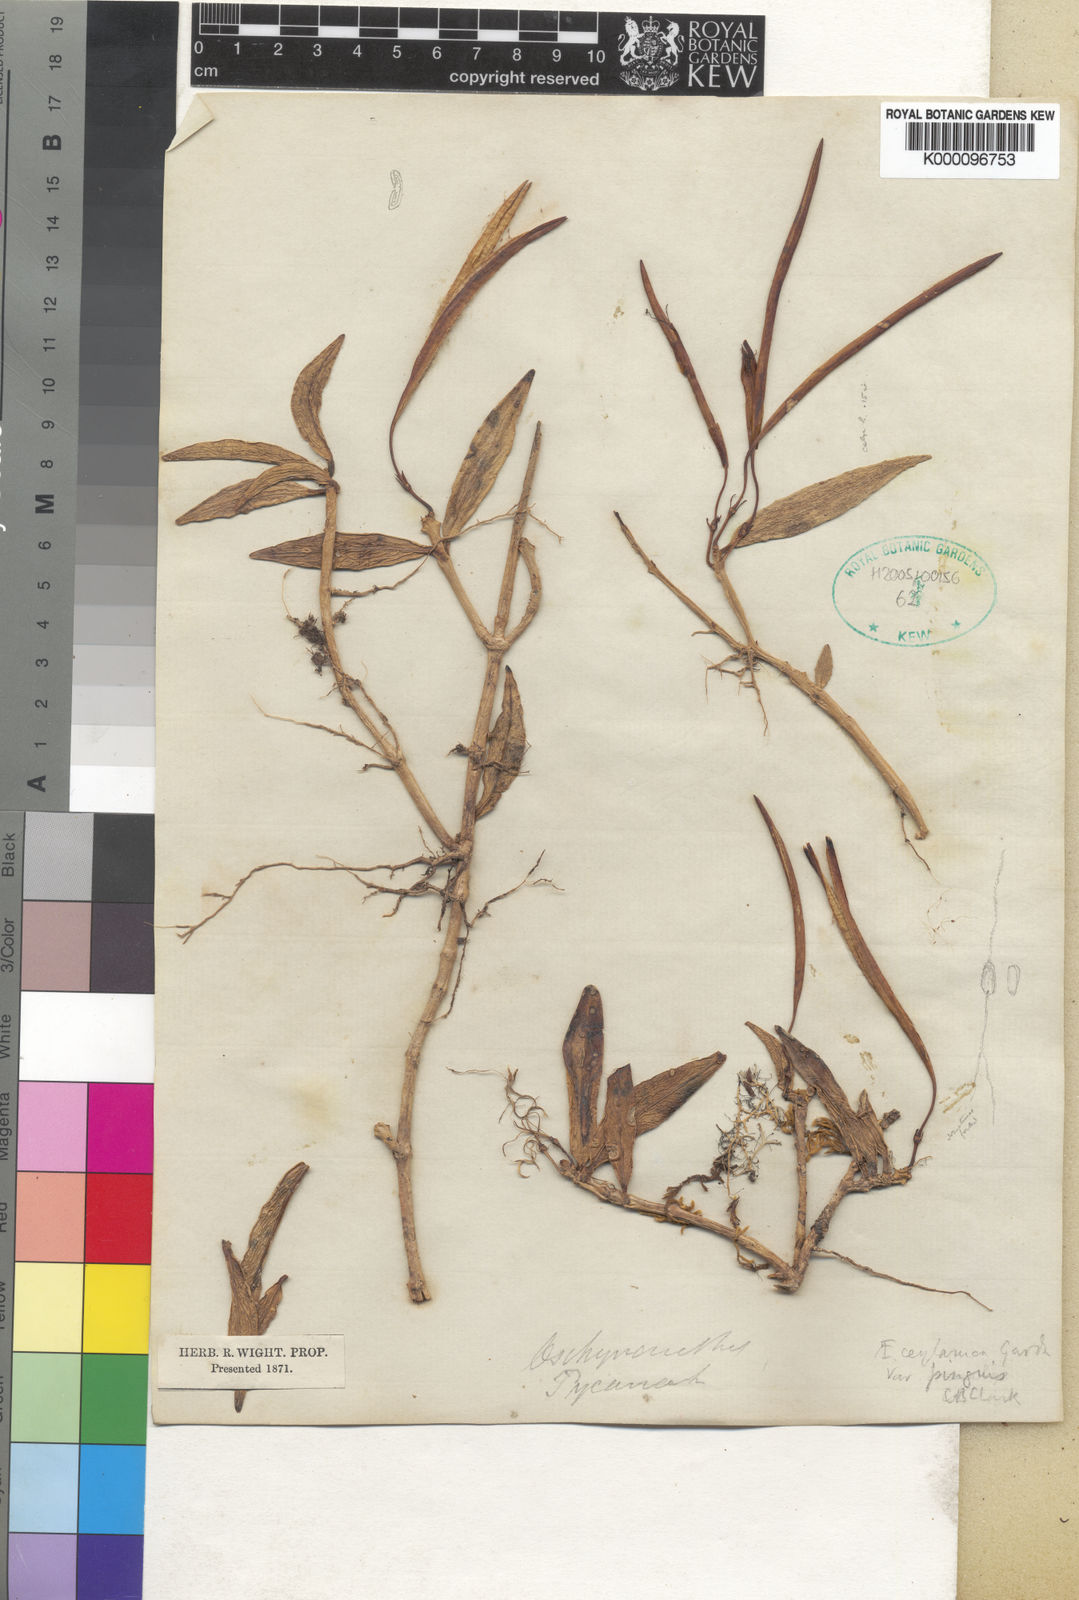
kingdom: Plantae
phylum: Tracheophyta
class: Magnoliopsida
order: Lamiales
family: Gesneriaceae
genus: Aeschynanthus
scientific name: Aeschynanthus
